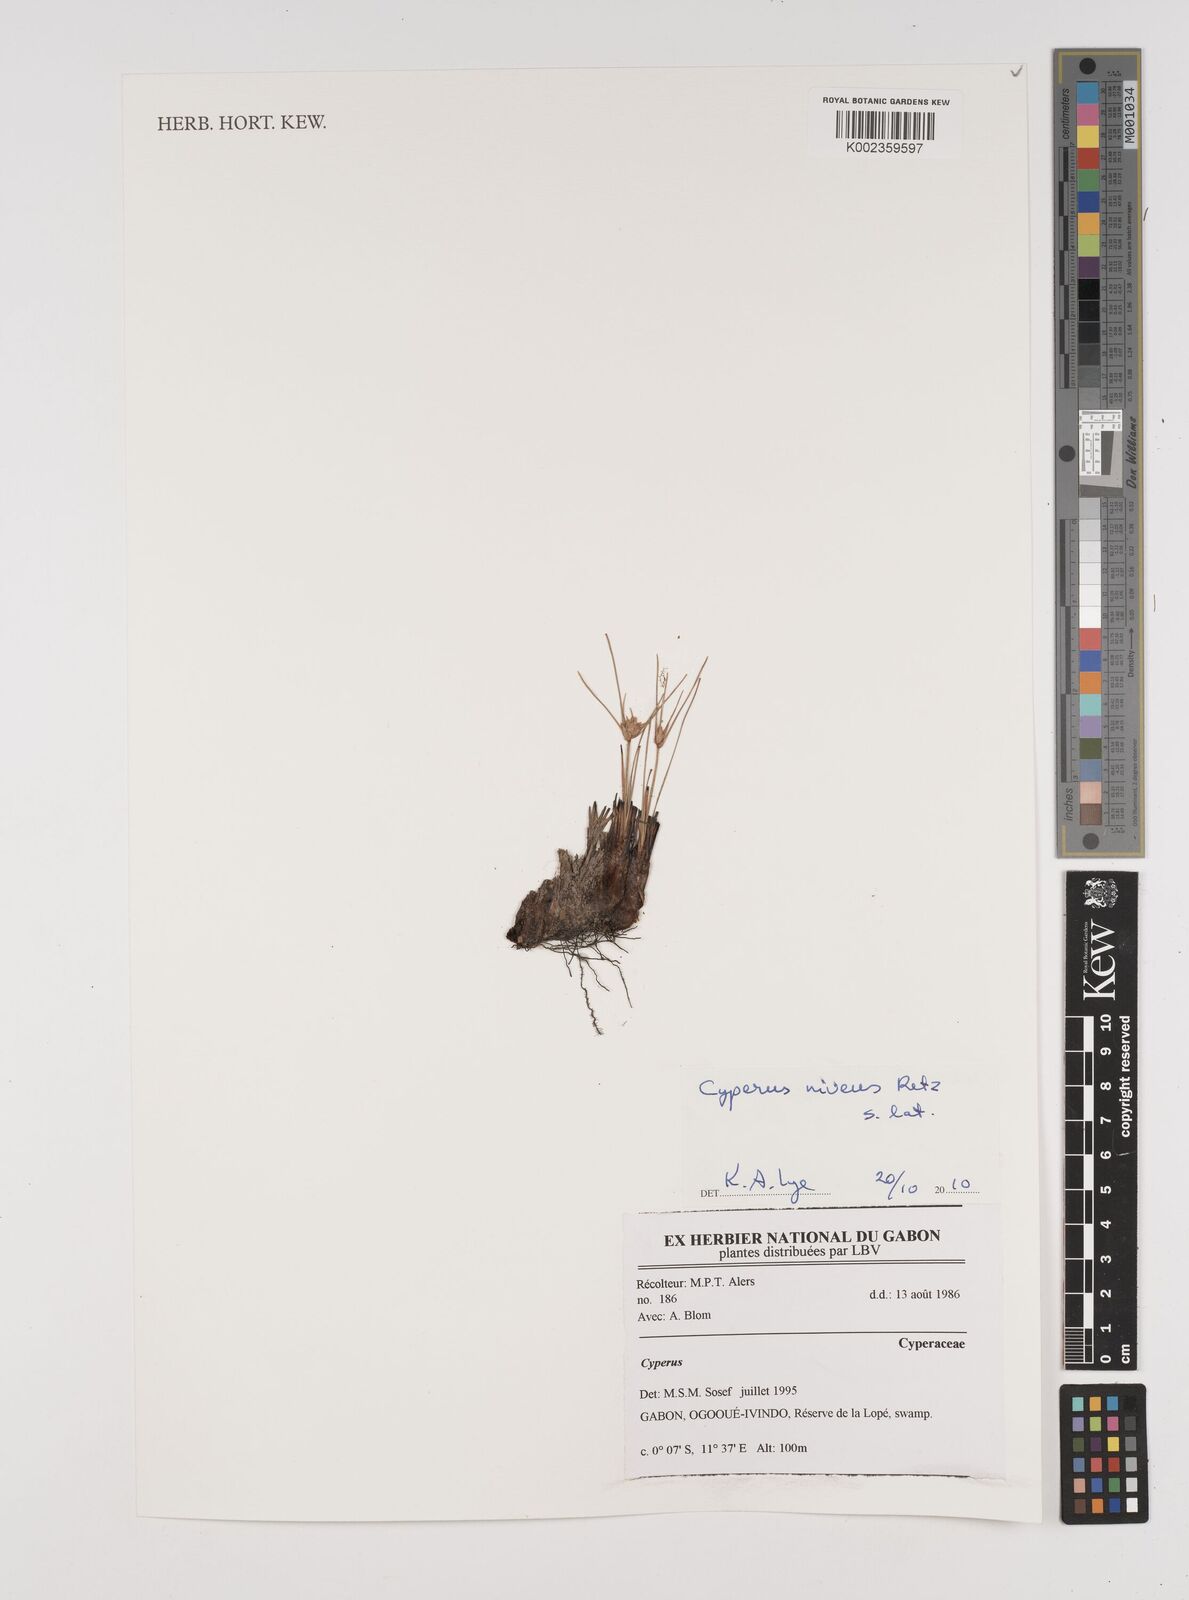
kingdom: Plantae
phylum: Tracheophyta
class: Liliopsida
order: Poales
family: Cyperaceae
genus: Cyperus
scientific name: Cyperus niveus
